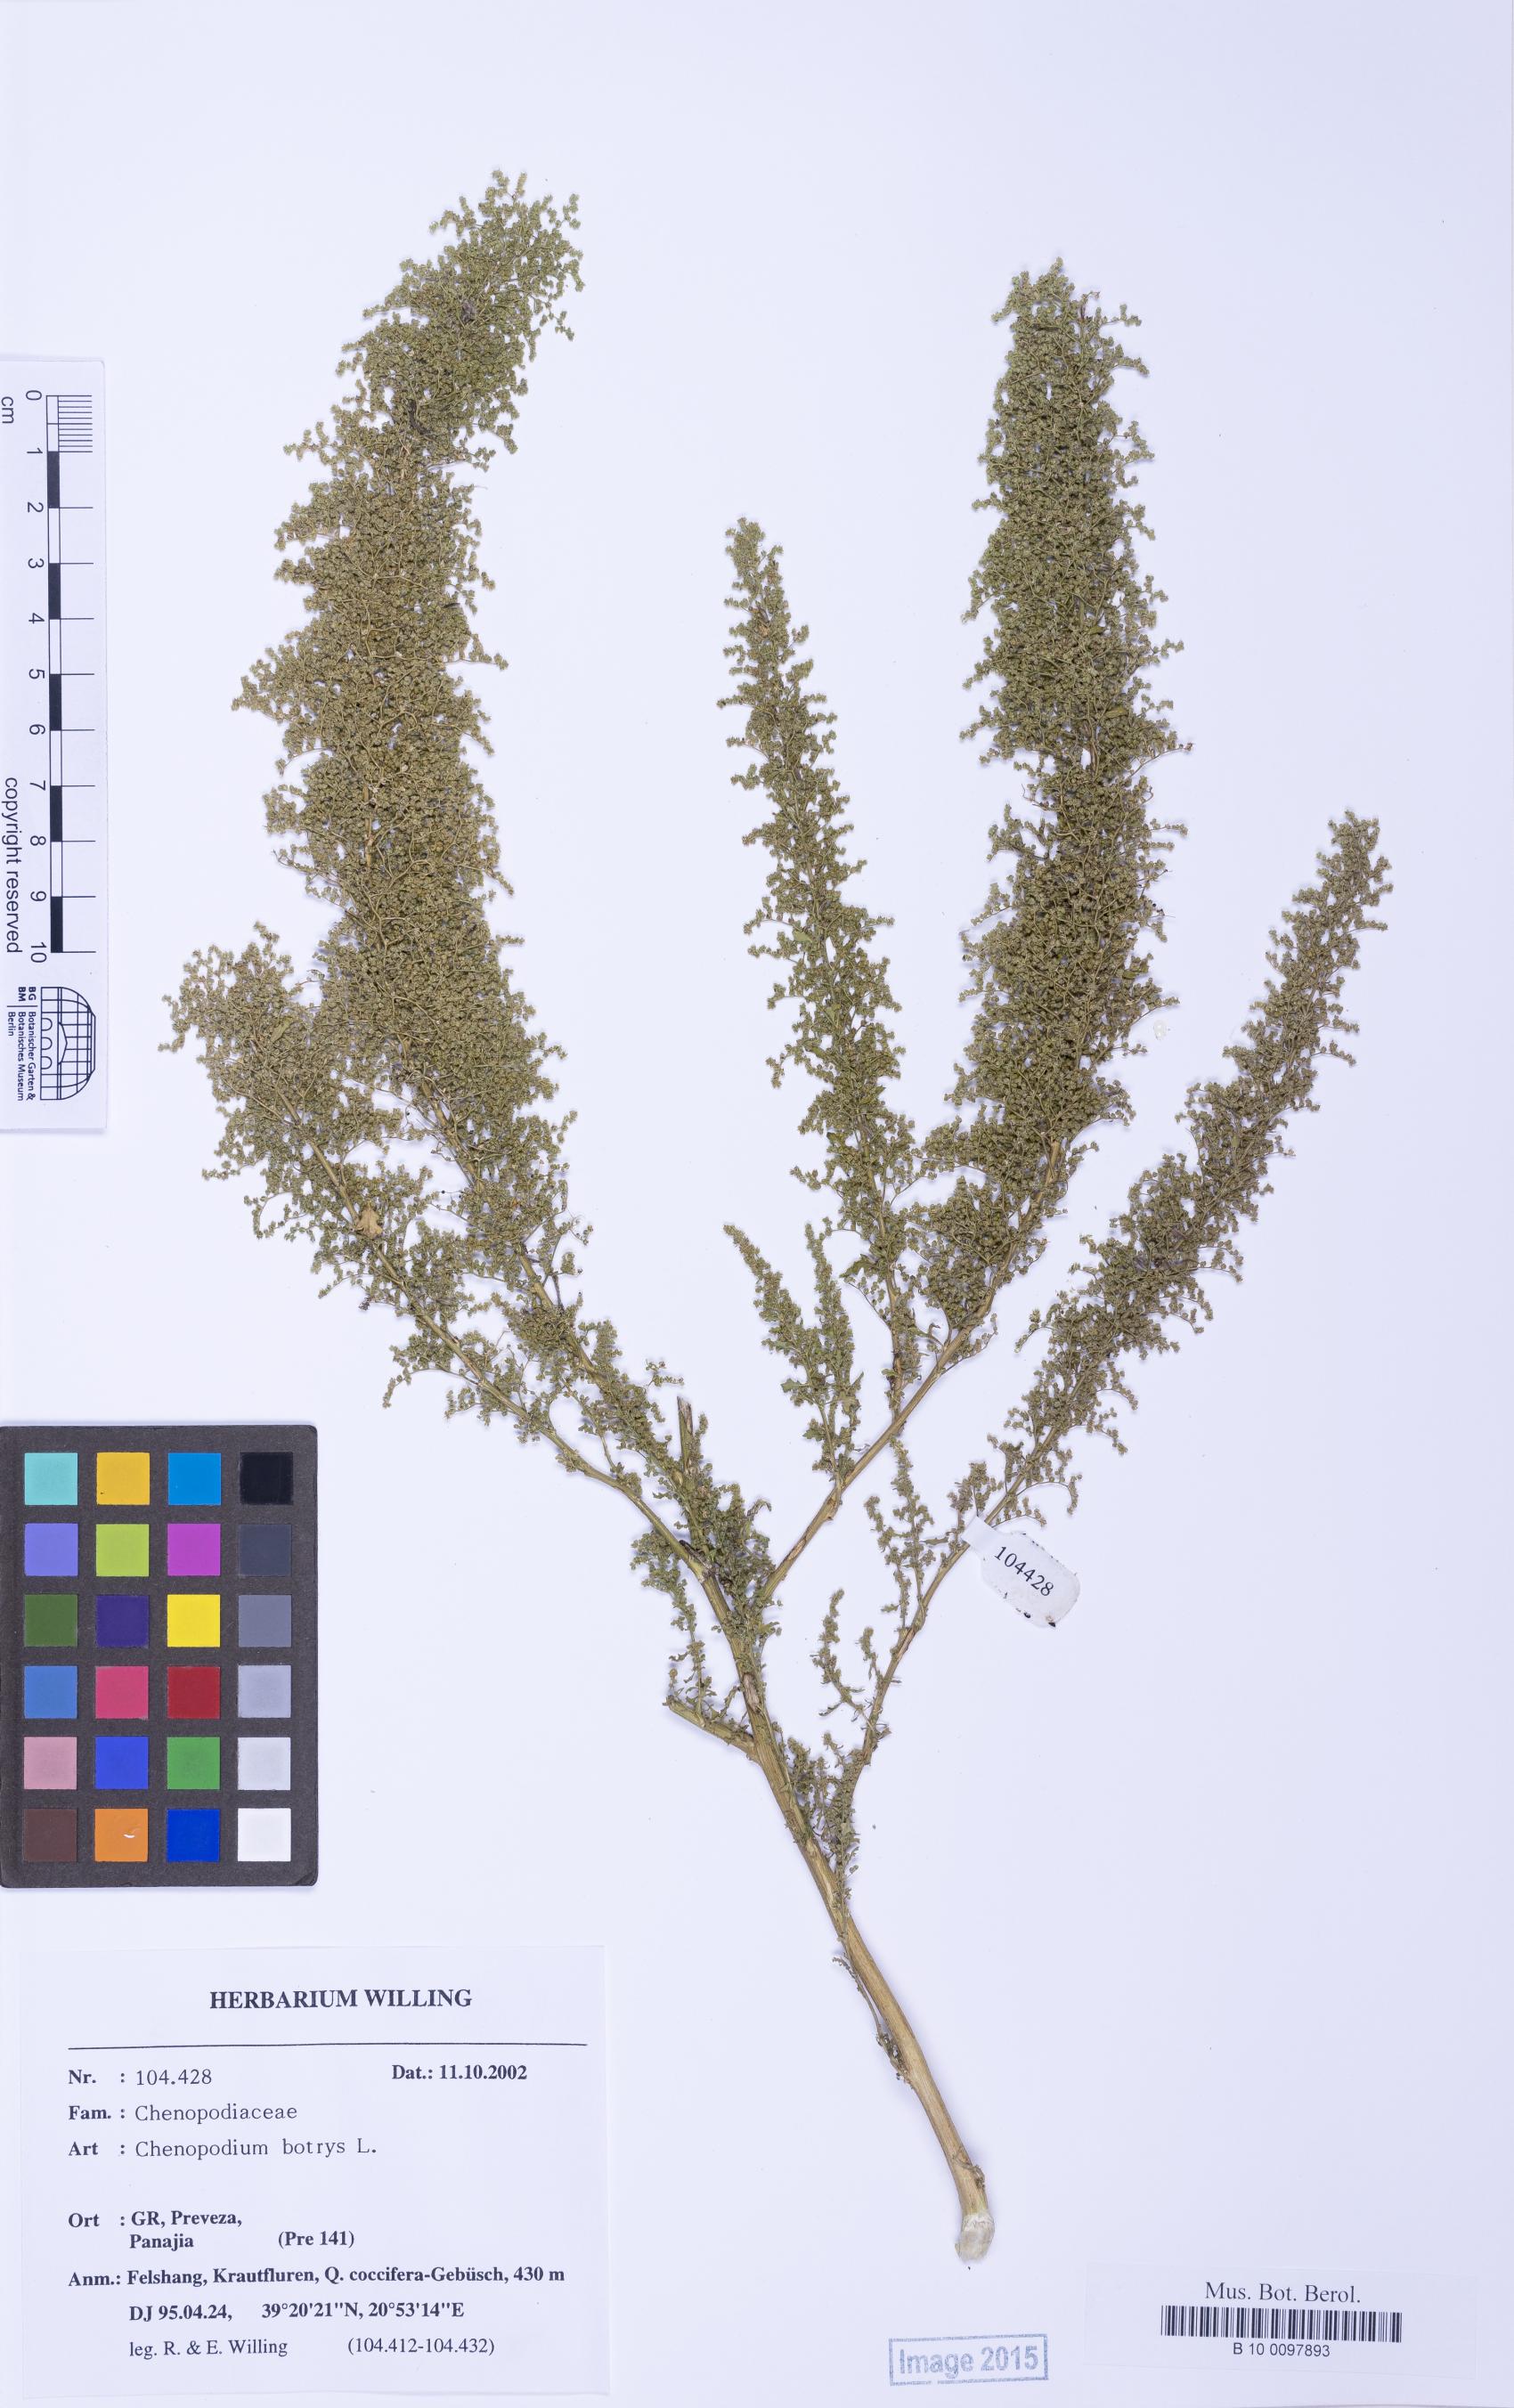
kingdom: Plantae
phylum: Tracheophyta
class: Magnoliopsida
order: Caryophyllales
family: Amaranthaceae
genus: Dysphania
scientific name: Dysphania botrys
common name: Feather-geranium
